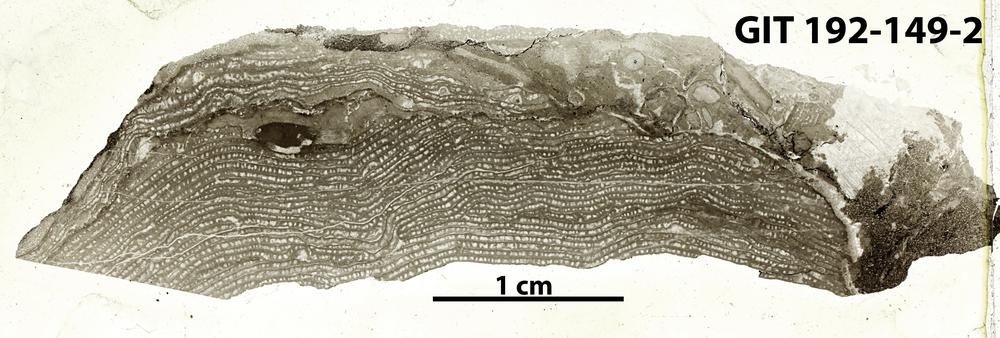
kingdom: Animalia
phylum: Porifera
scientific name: Porifera
